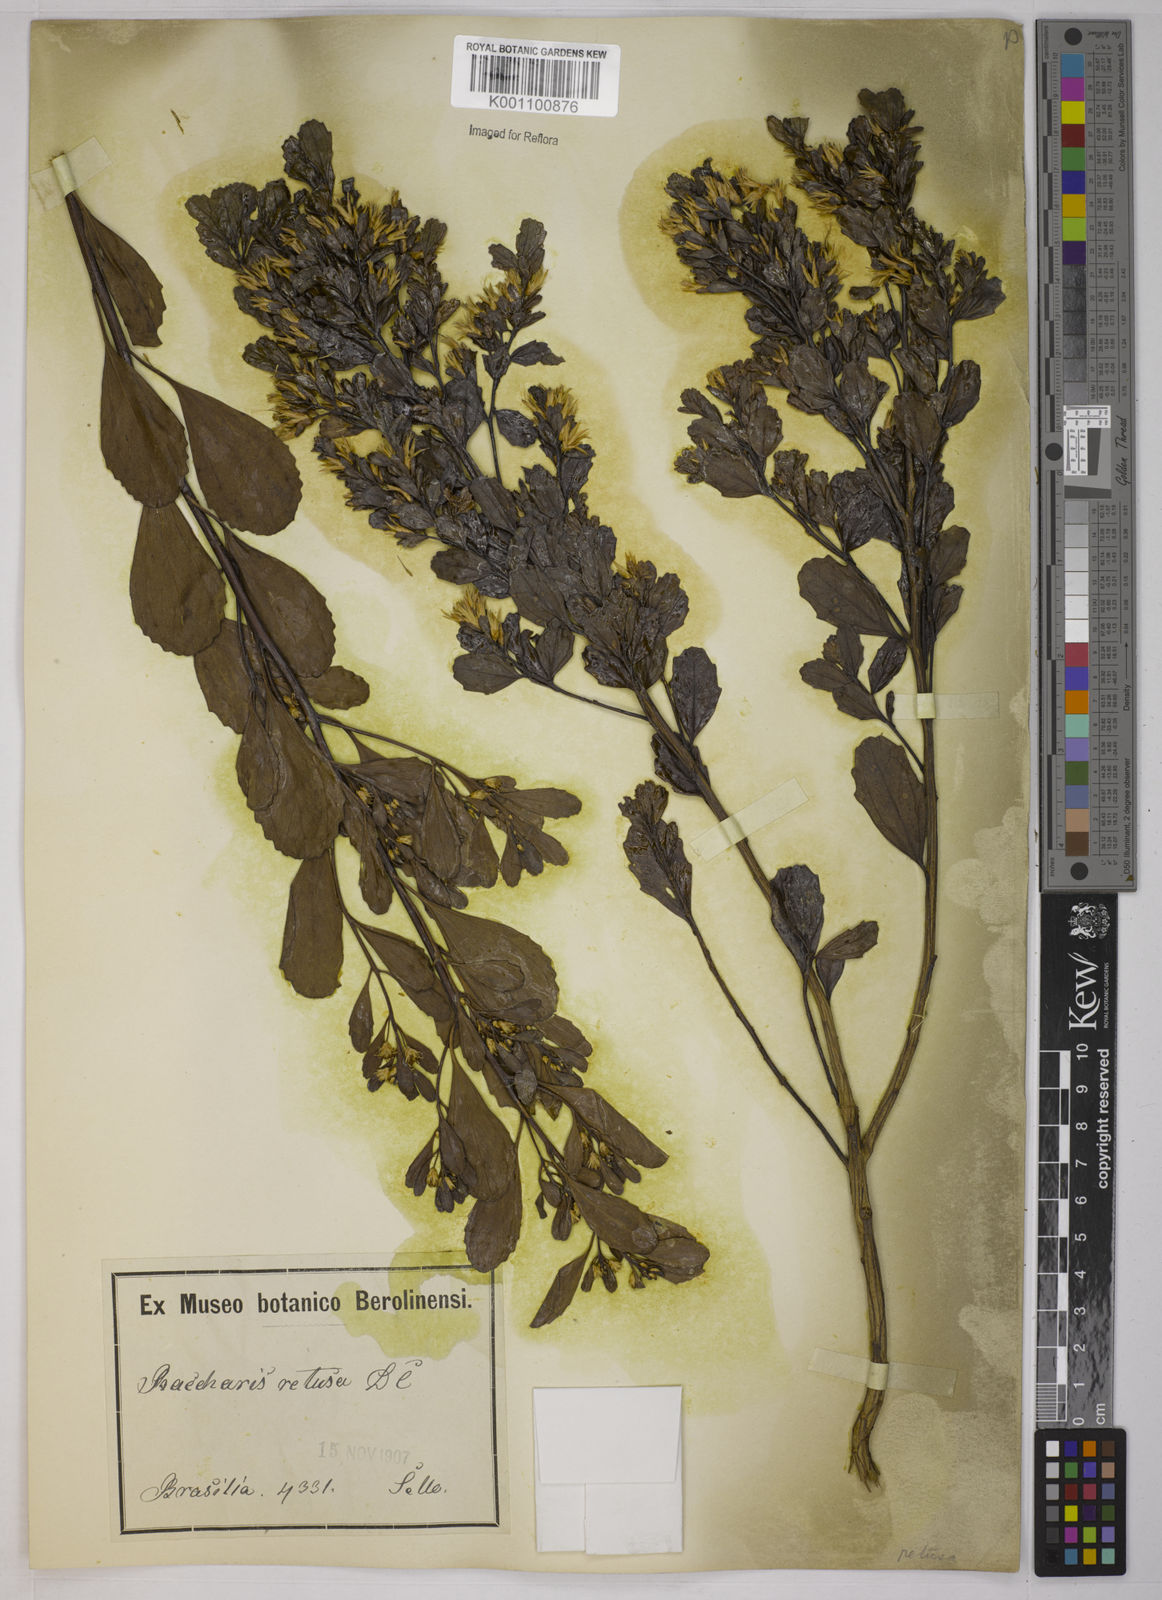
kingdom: Plantae
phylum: Tracheophyta
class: Magnoliopsida
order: Asterales
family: Asteraceae
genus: Baccharis
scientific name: Baccharis retusa
